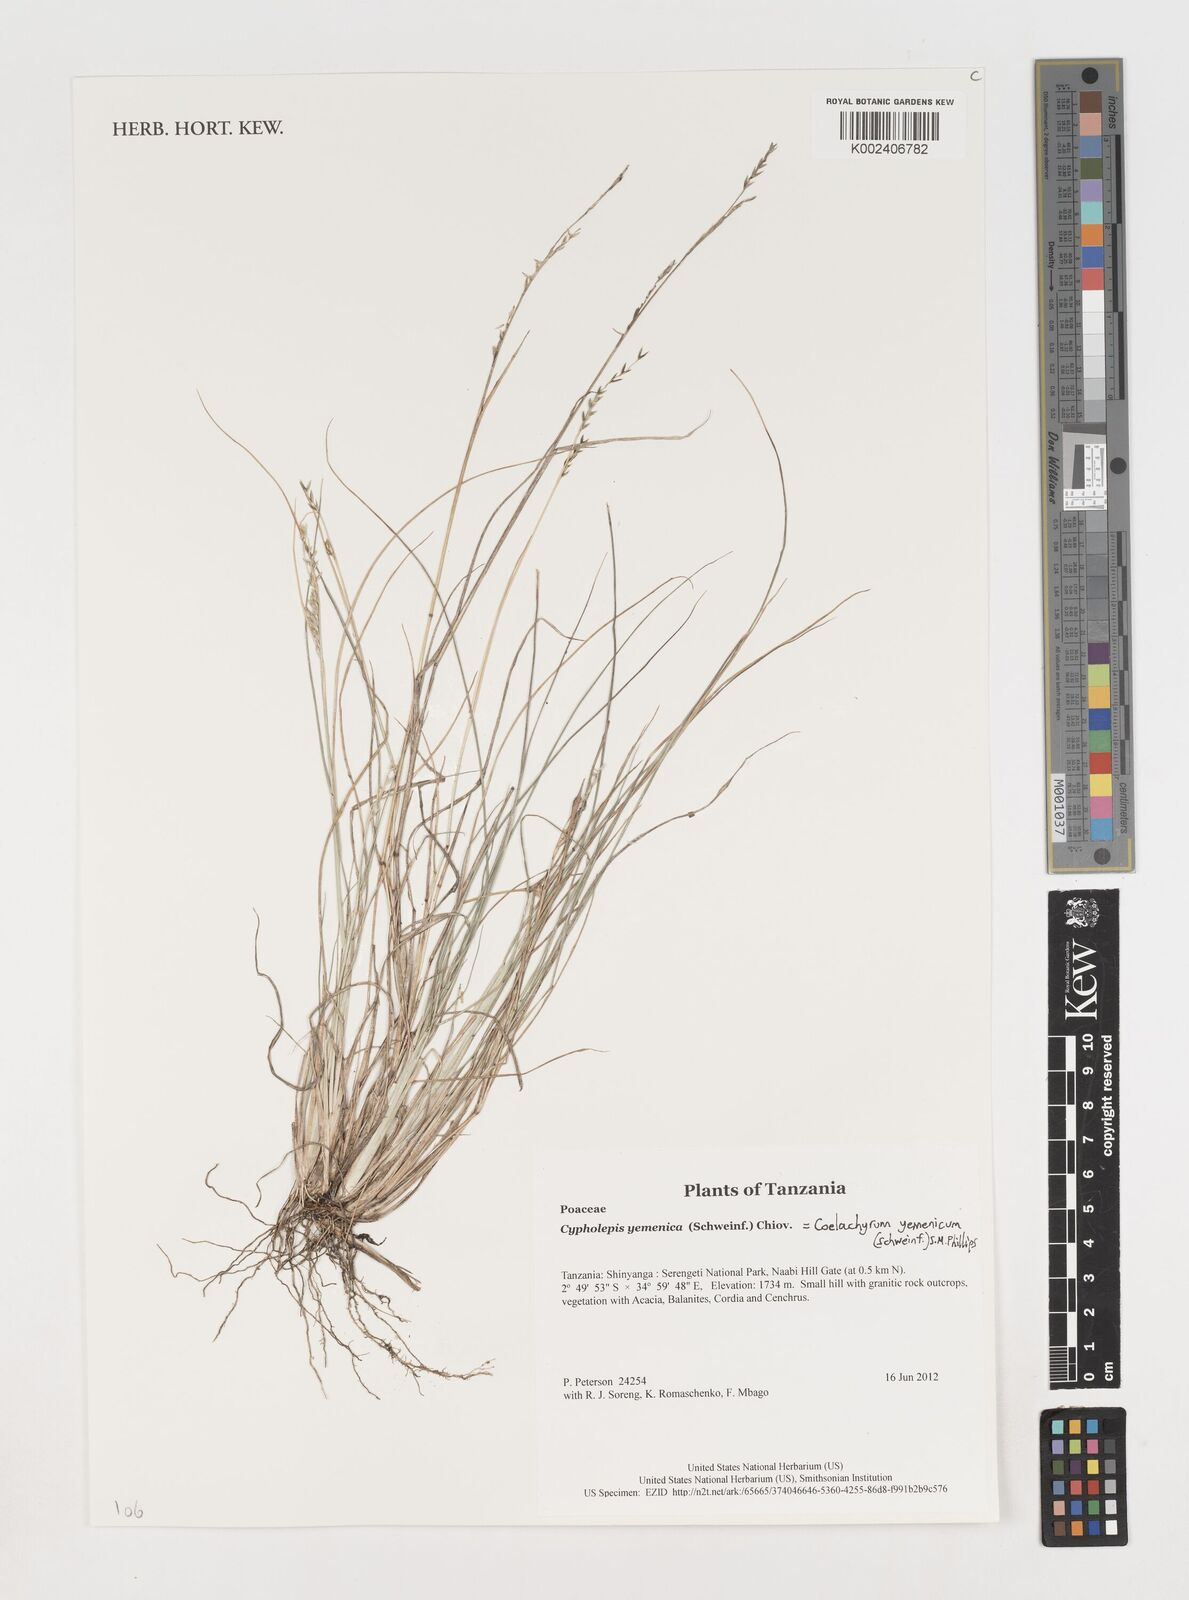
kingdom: Plantae
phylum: Tracheophyta
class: Liliopsida
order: Poales
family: Poaceae
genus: Disakisperma
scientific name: Disakisperma yemenicum
